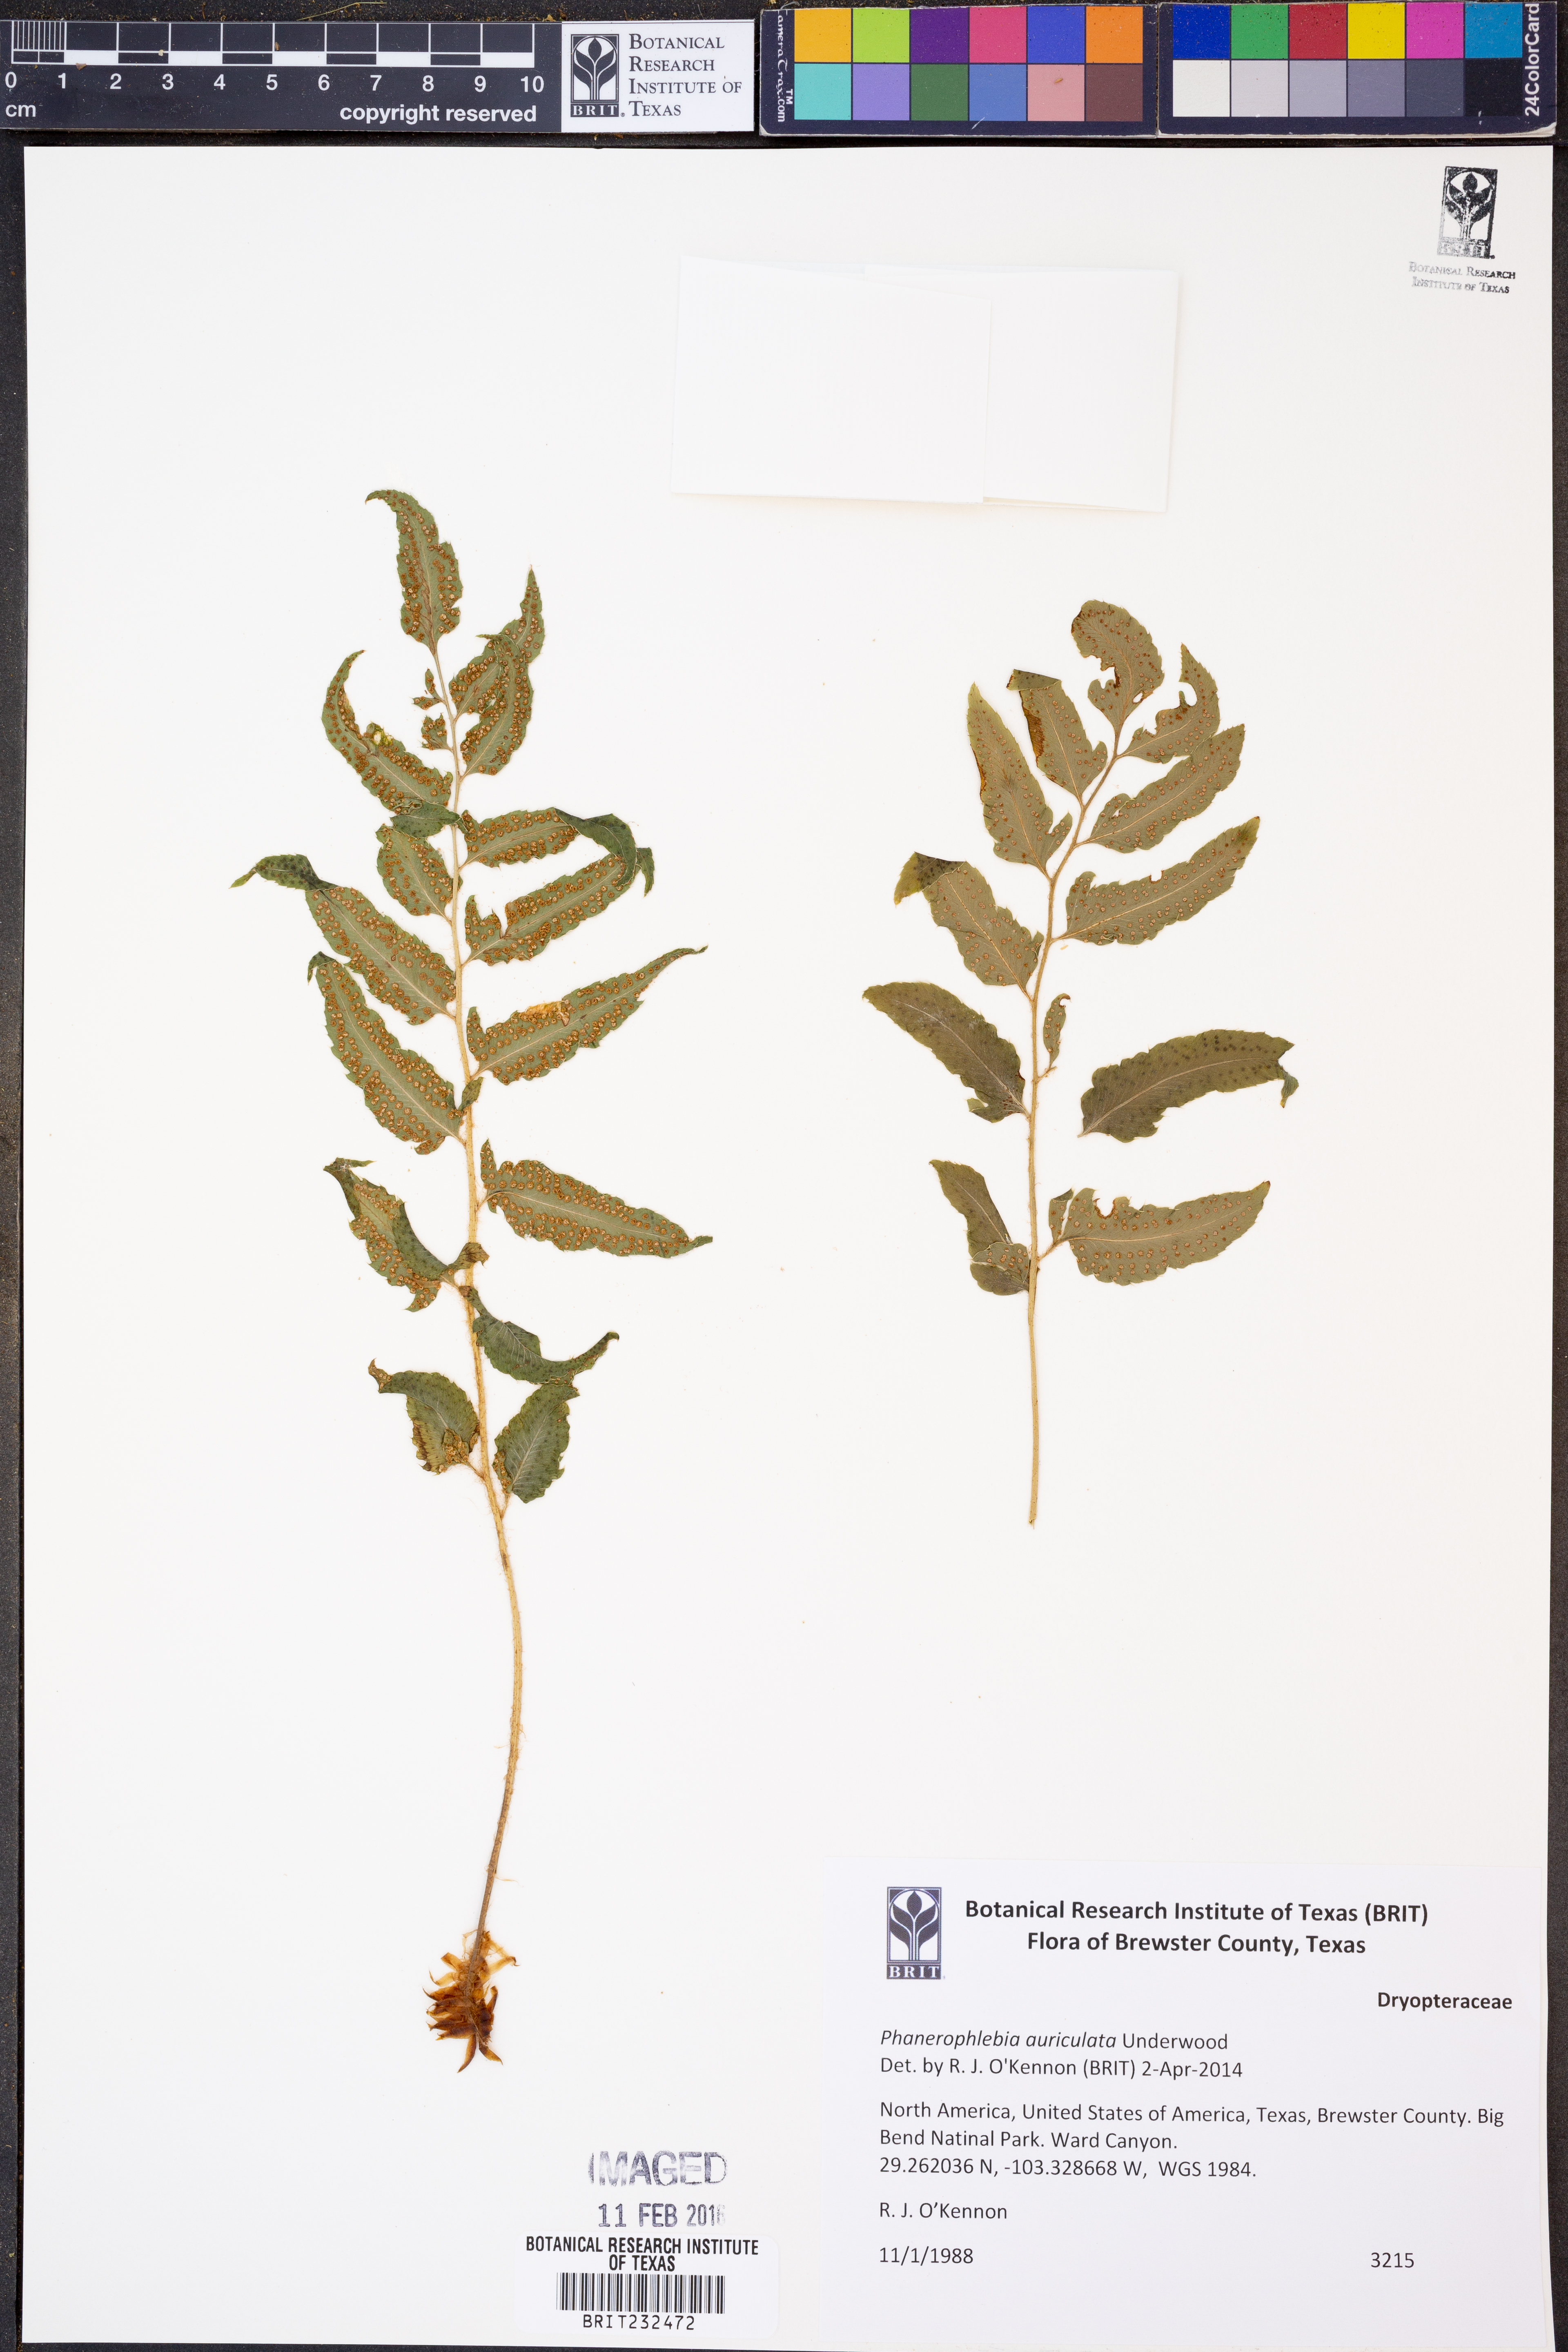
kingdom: Plantae
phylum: Tracheophyta
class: Polypodiopsida
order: Polypodiales
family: Dryopteridaceae
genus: Phanerophlebia
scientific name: Phanerophlebia auriculata
